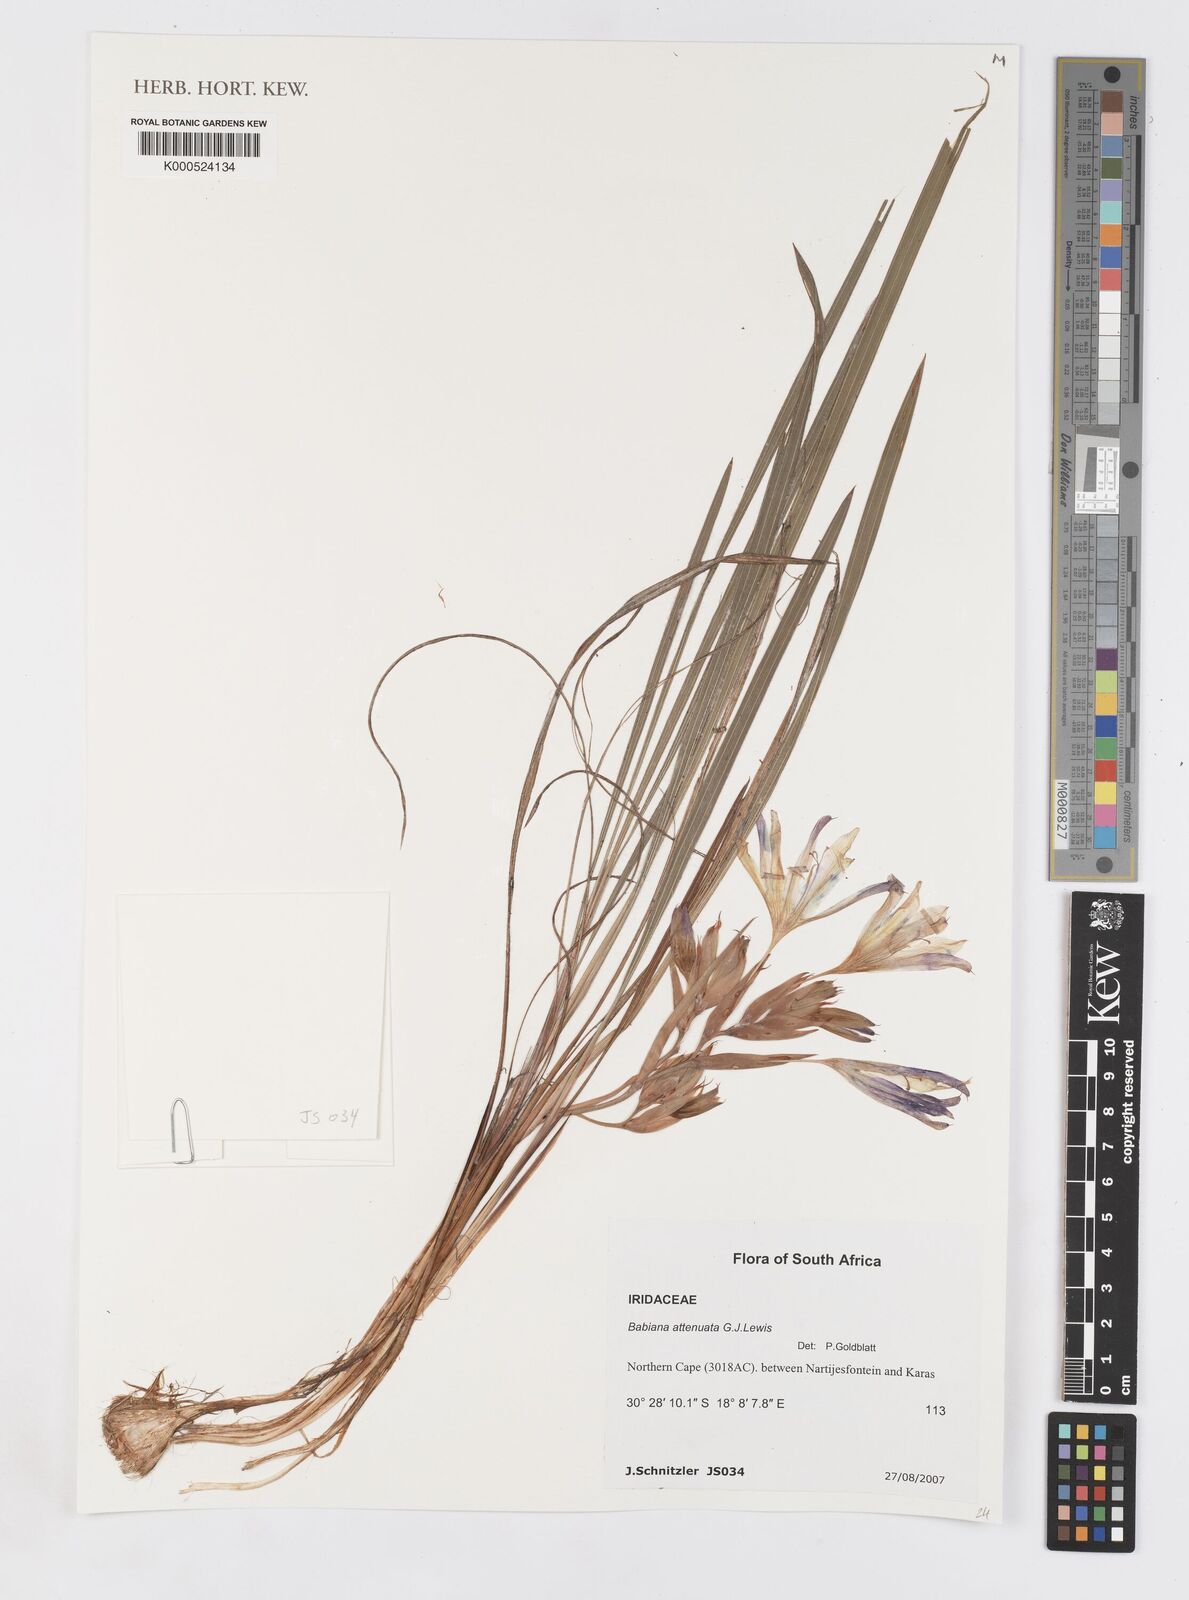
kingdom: Plantae
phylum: Tracheophyta
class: Liliopsida
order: Asparagales
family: Iridaceae
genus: Babiana
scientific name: Babiana attenuata
